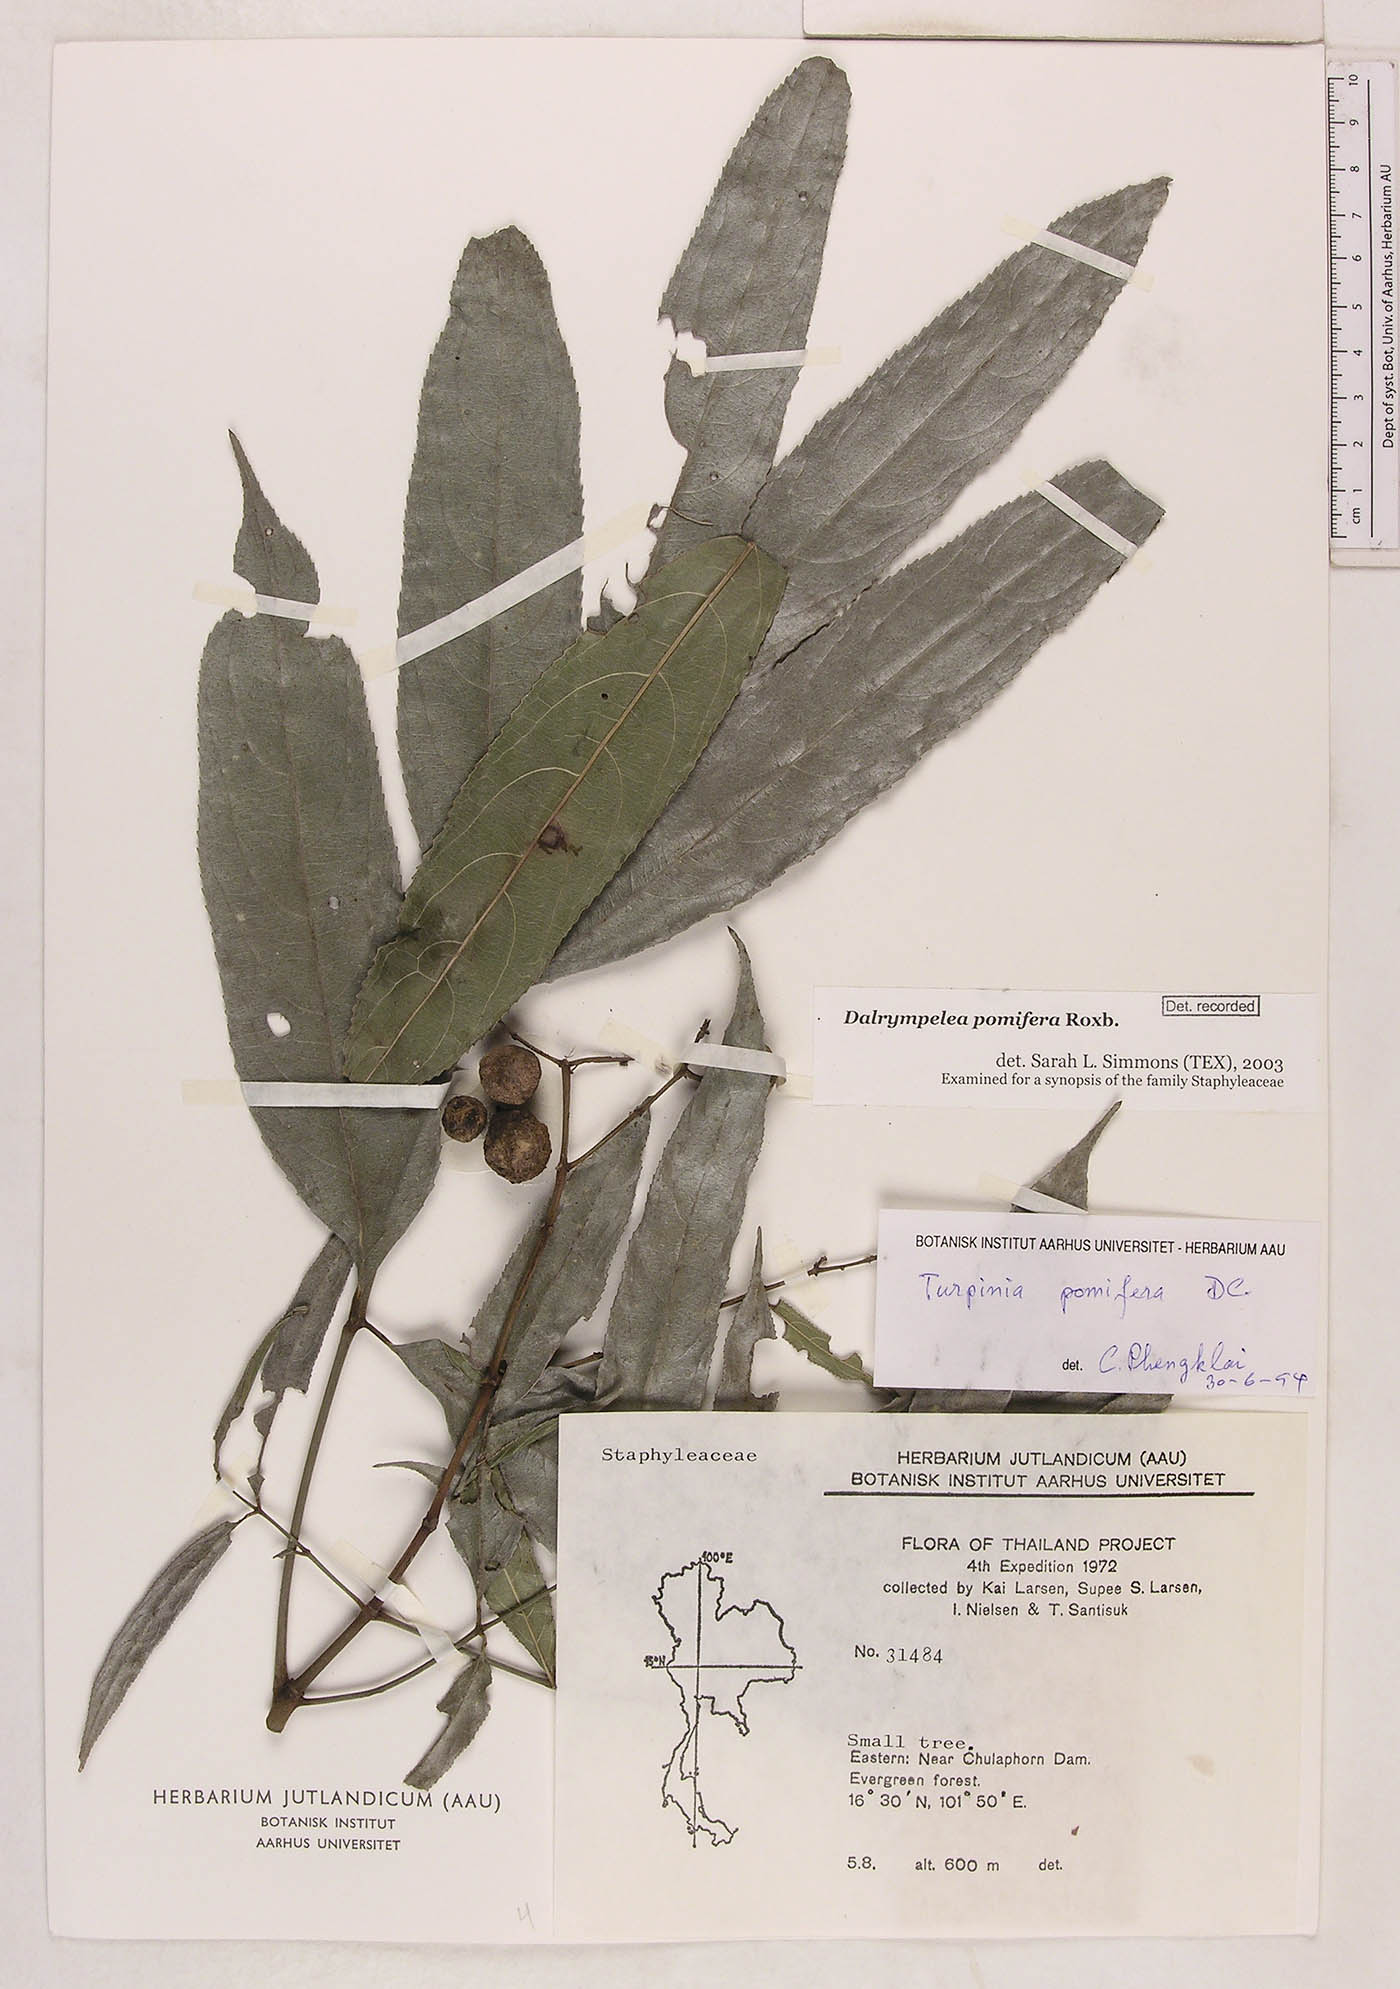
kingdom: Plantae
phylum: Tracheophyta
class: Magnoliopsida
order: Crossosomatales
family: Staphyleaceae
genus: Turpinia
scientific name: Turpinia cochinchinensis
